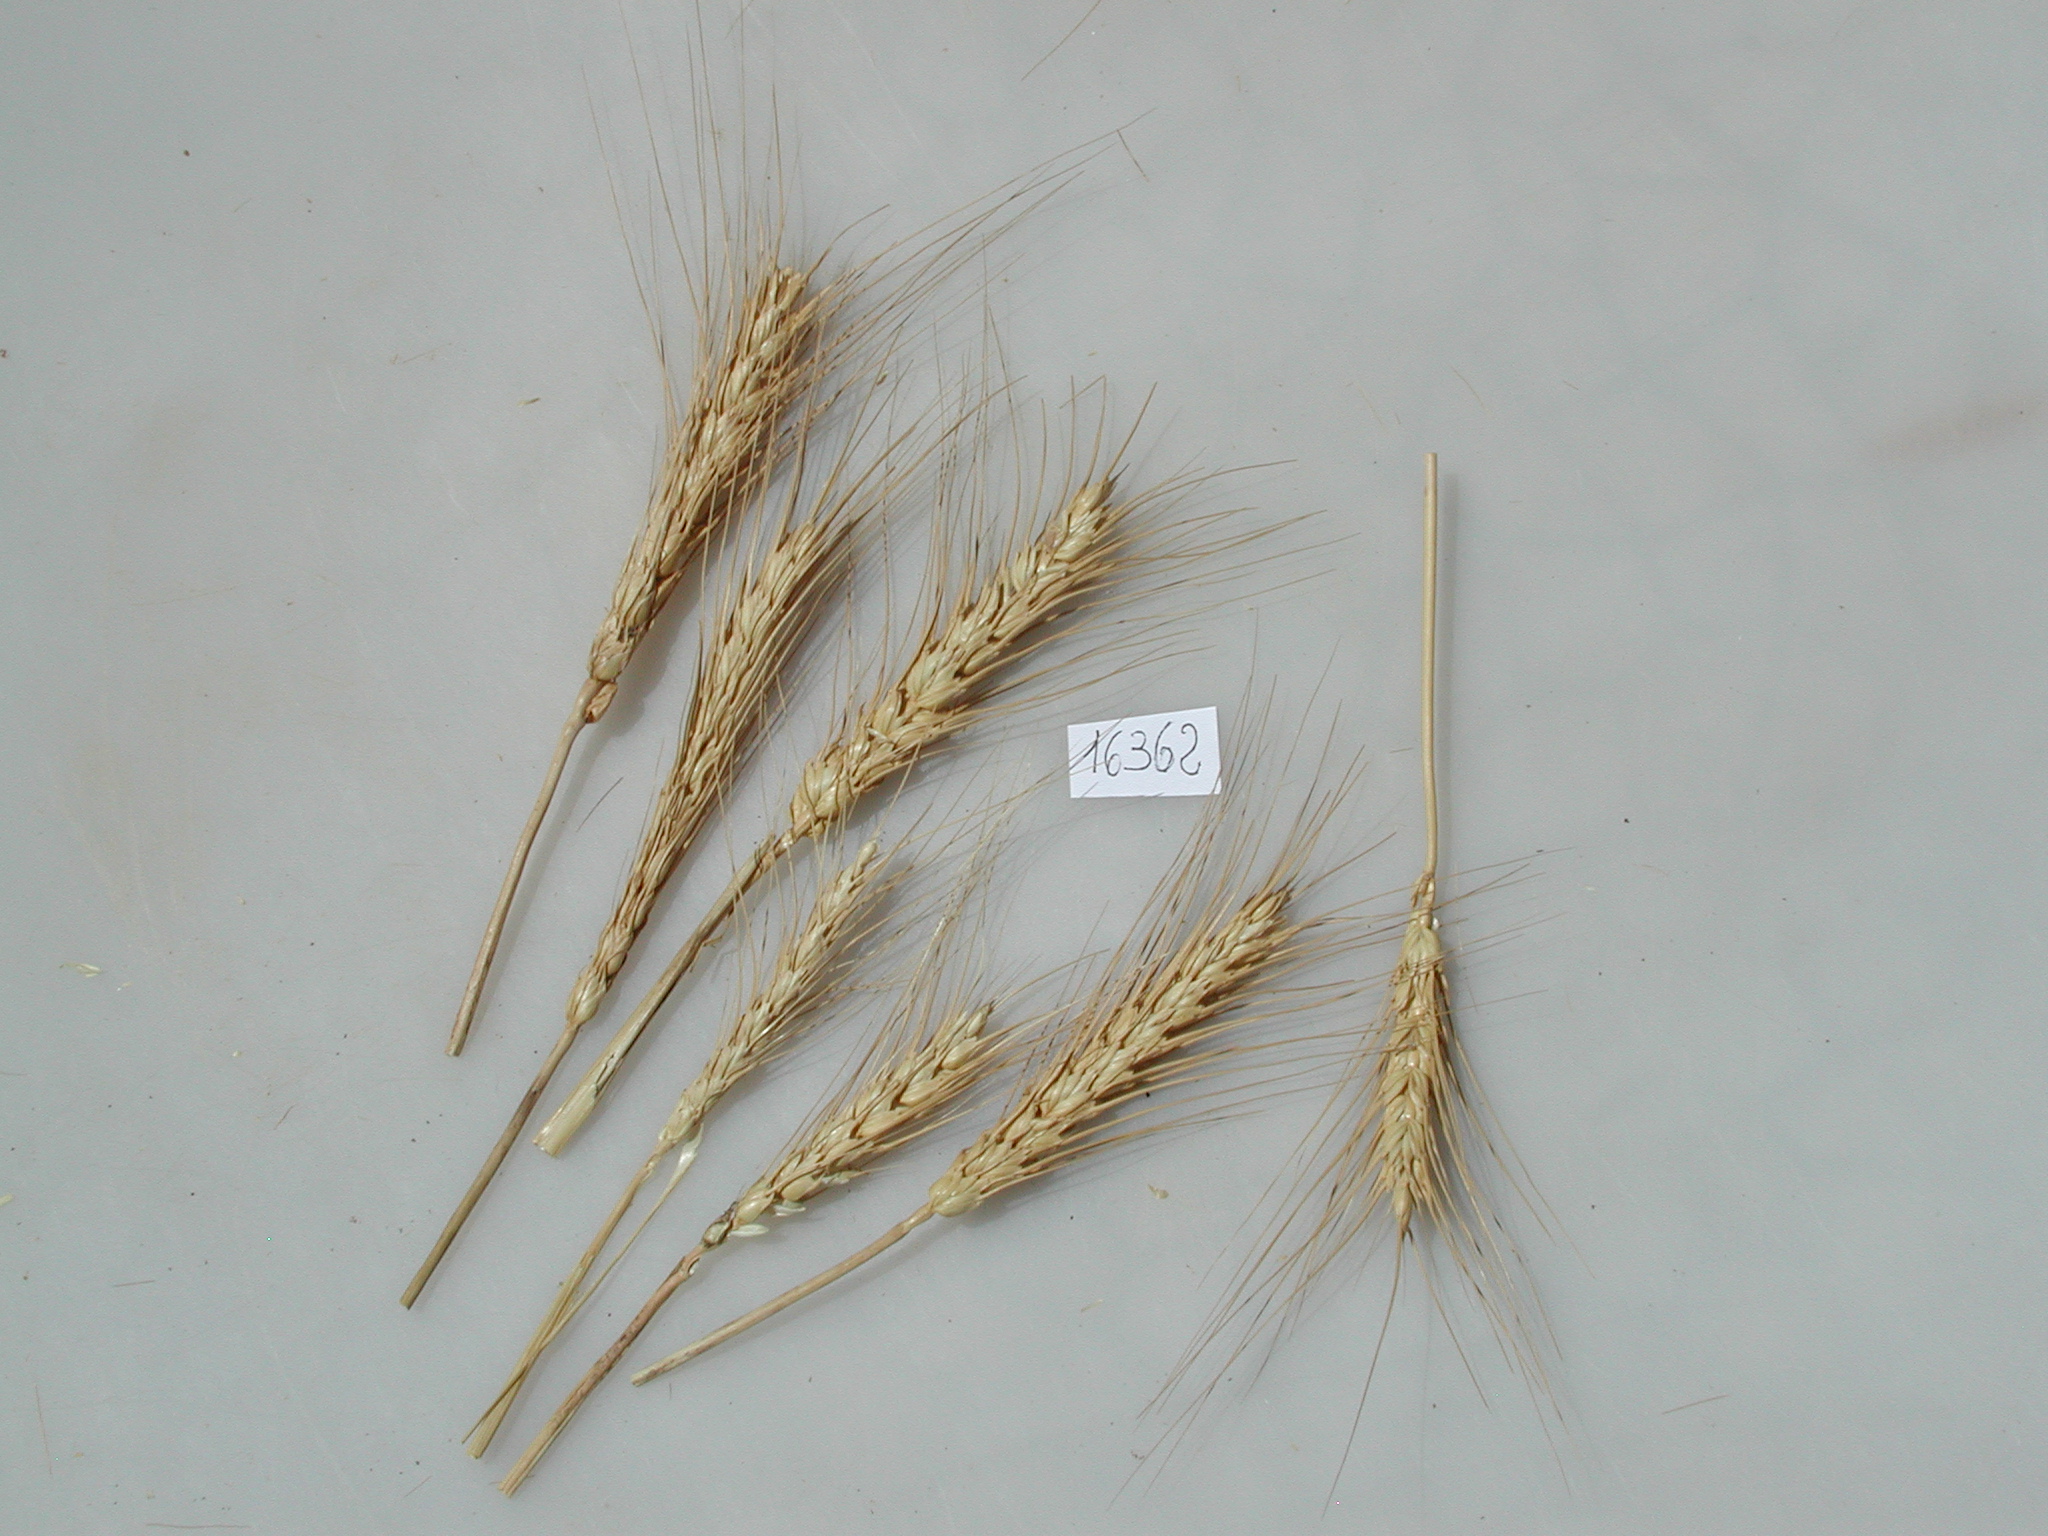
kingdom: Plantae
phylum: Tracheophyta
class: Liliopsida
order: Poales
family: Poaceae
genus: Triticum
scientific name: Triticum
